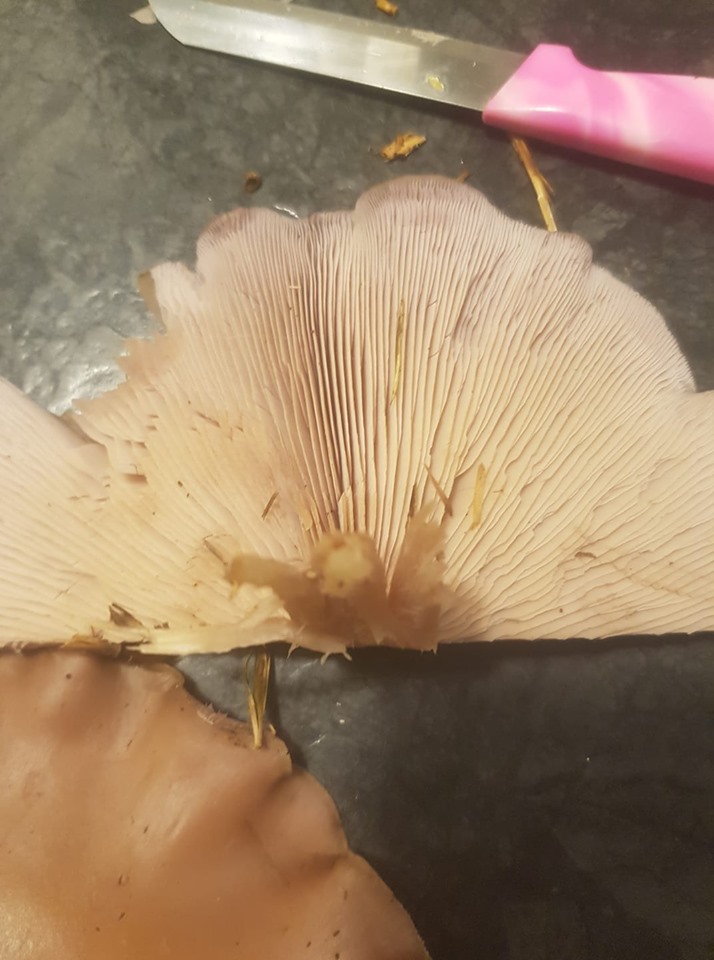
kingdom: Fungi
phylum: Basidiomycota
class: Agaricomycetes
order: Agaricales
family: Tricholomataceae
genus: Lepista
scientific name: Lepista
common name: hekseringshat
